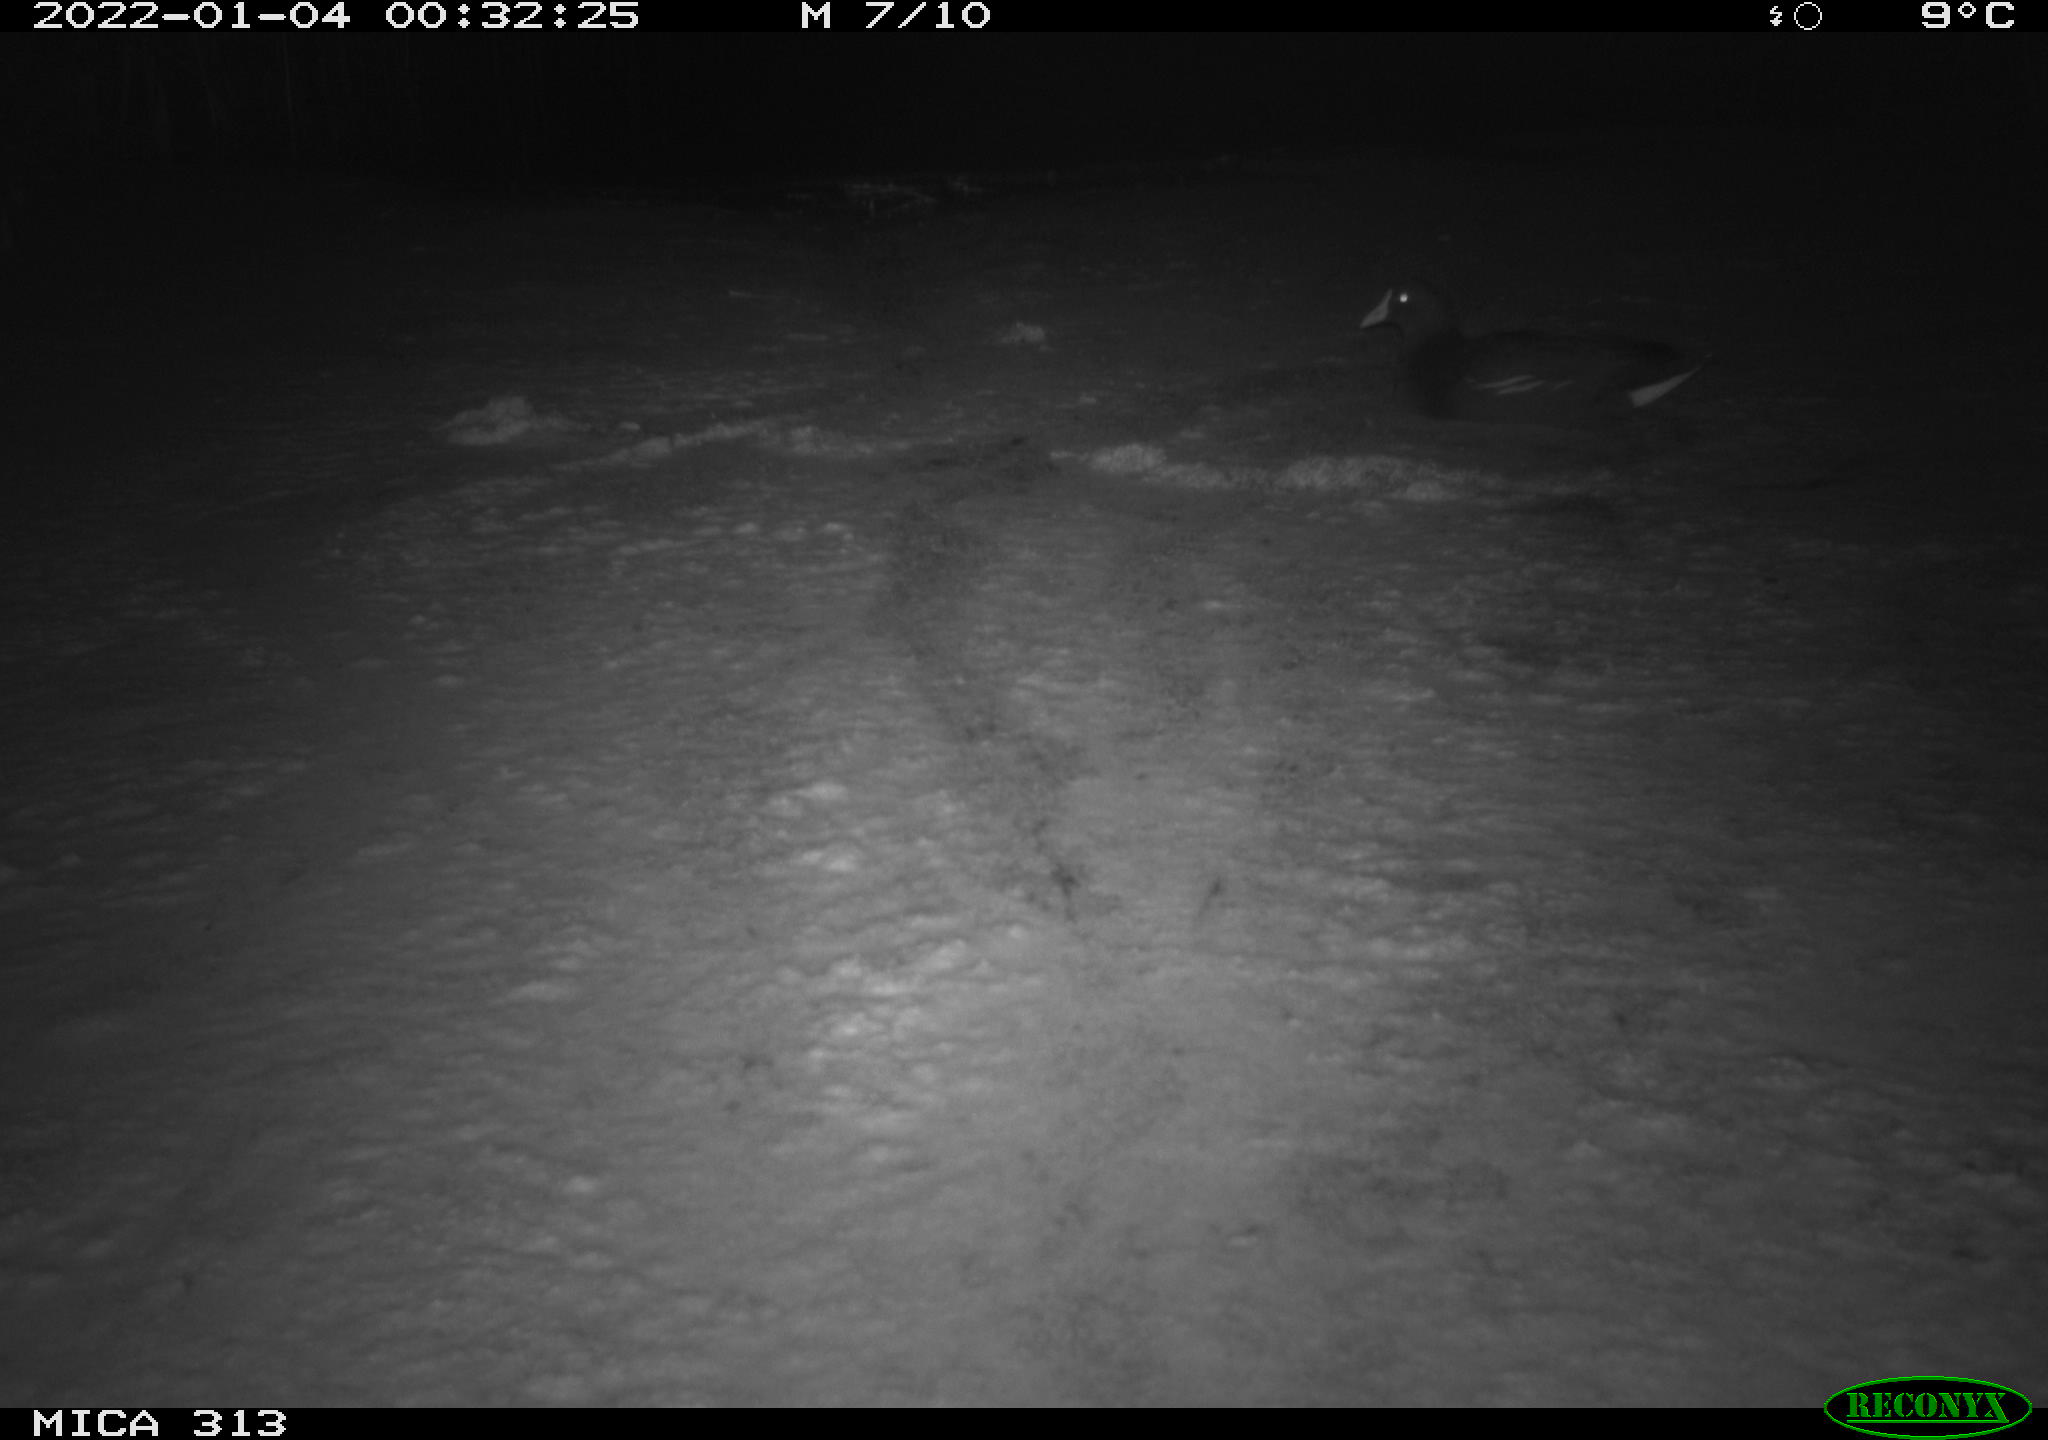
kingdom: Animalia
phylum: Chordata
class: Aves
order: Gruiformes
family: Rallidae
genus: Gallinula
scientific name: Gallinula chloropus
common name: Common moorhen
